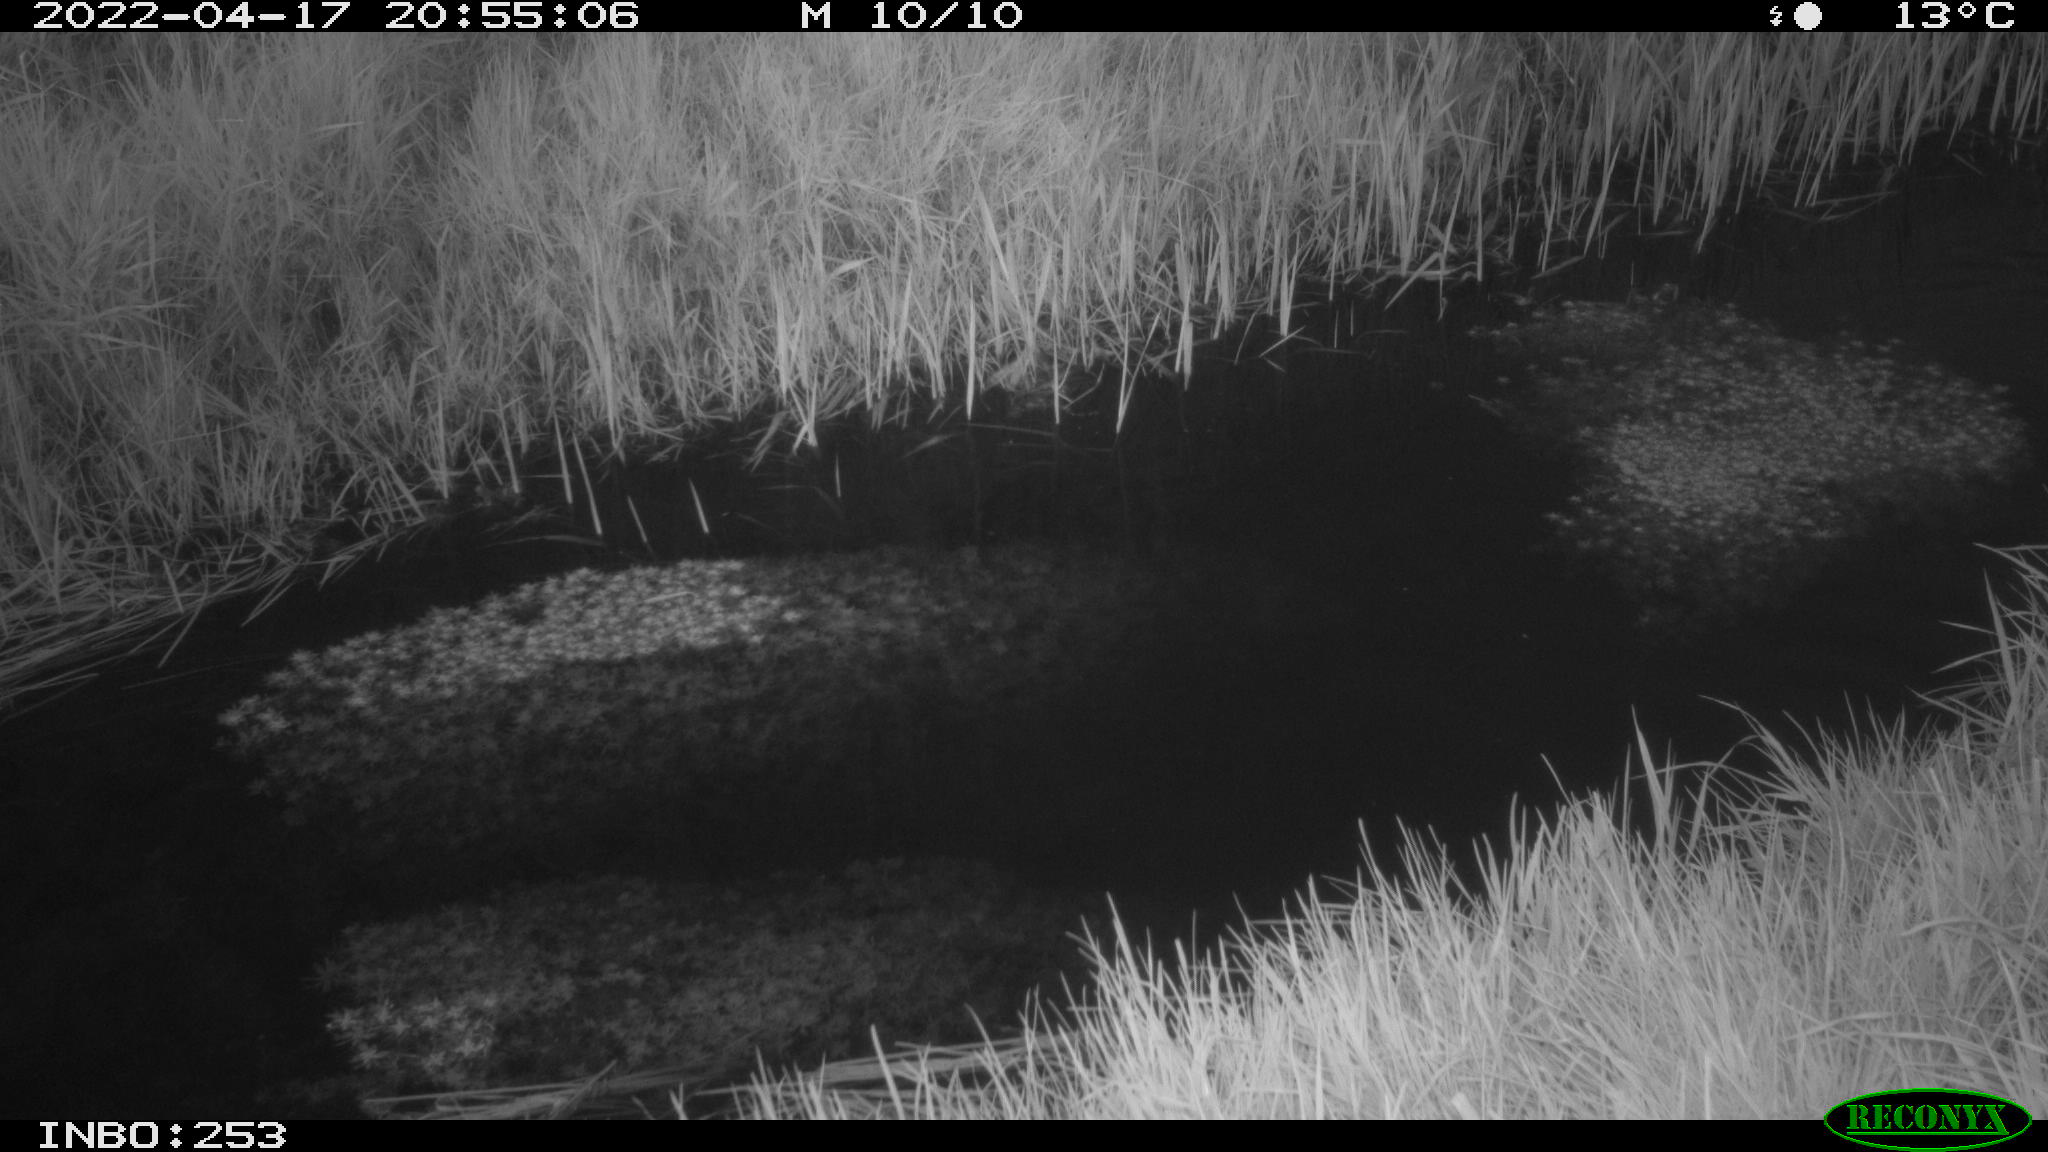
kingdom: Animalia
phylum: Chordata
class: Aves
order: Anseriformes
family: Anatidae
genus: Anas
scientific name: Anas platyrhynchos
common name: Mallard
